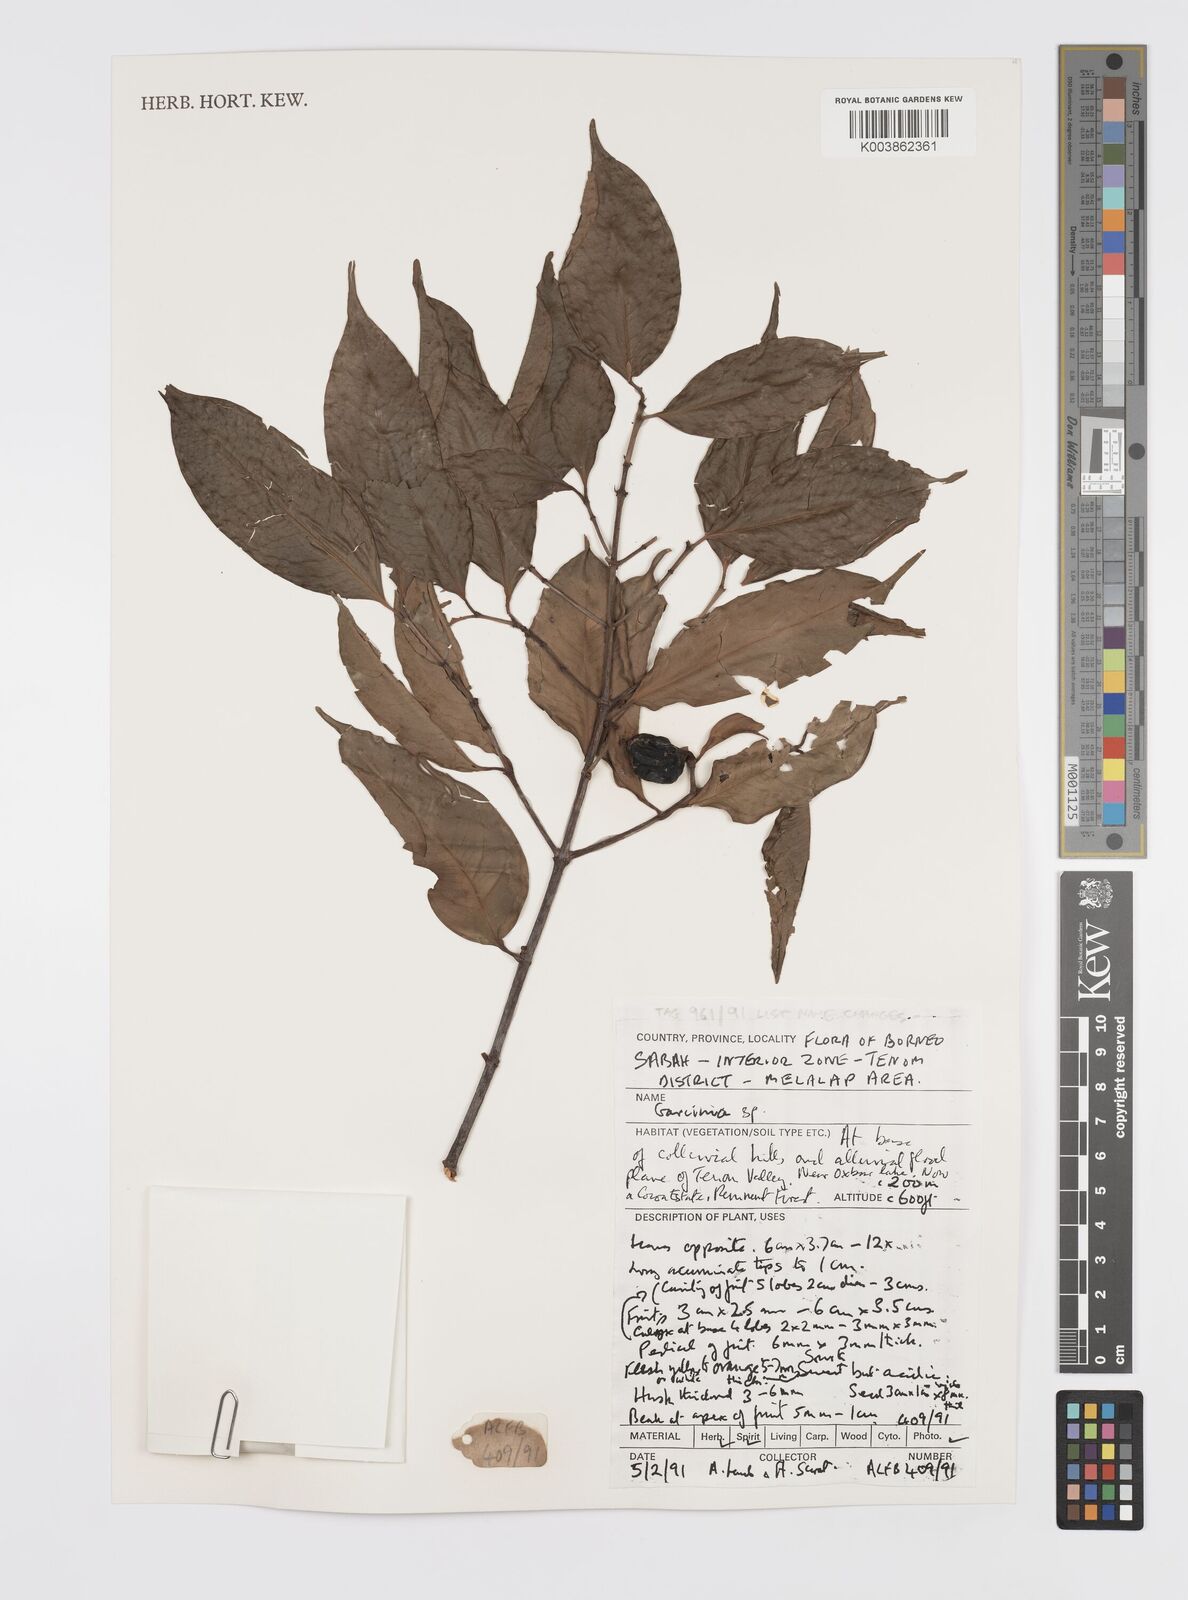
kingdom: Plantae
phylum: Tracheophyta
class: Magnoliopsida
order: Malpighiales
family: Clusiaceae
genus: Garcinia
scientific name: Garcinia venulosa
